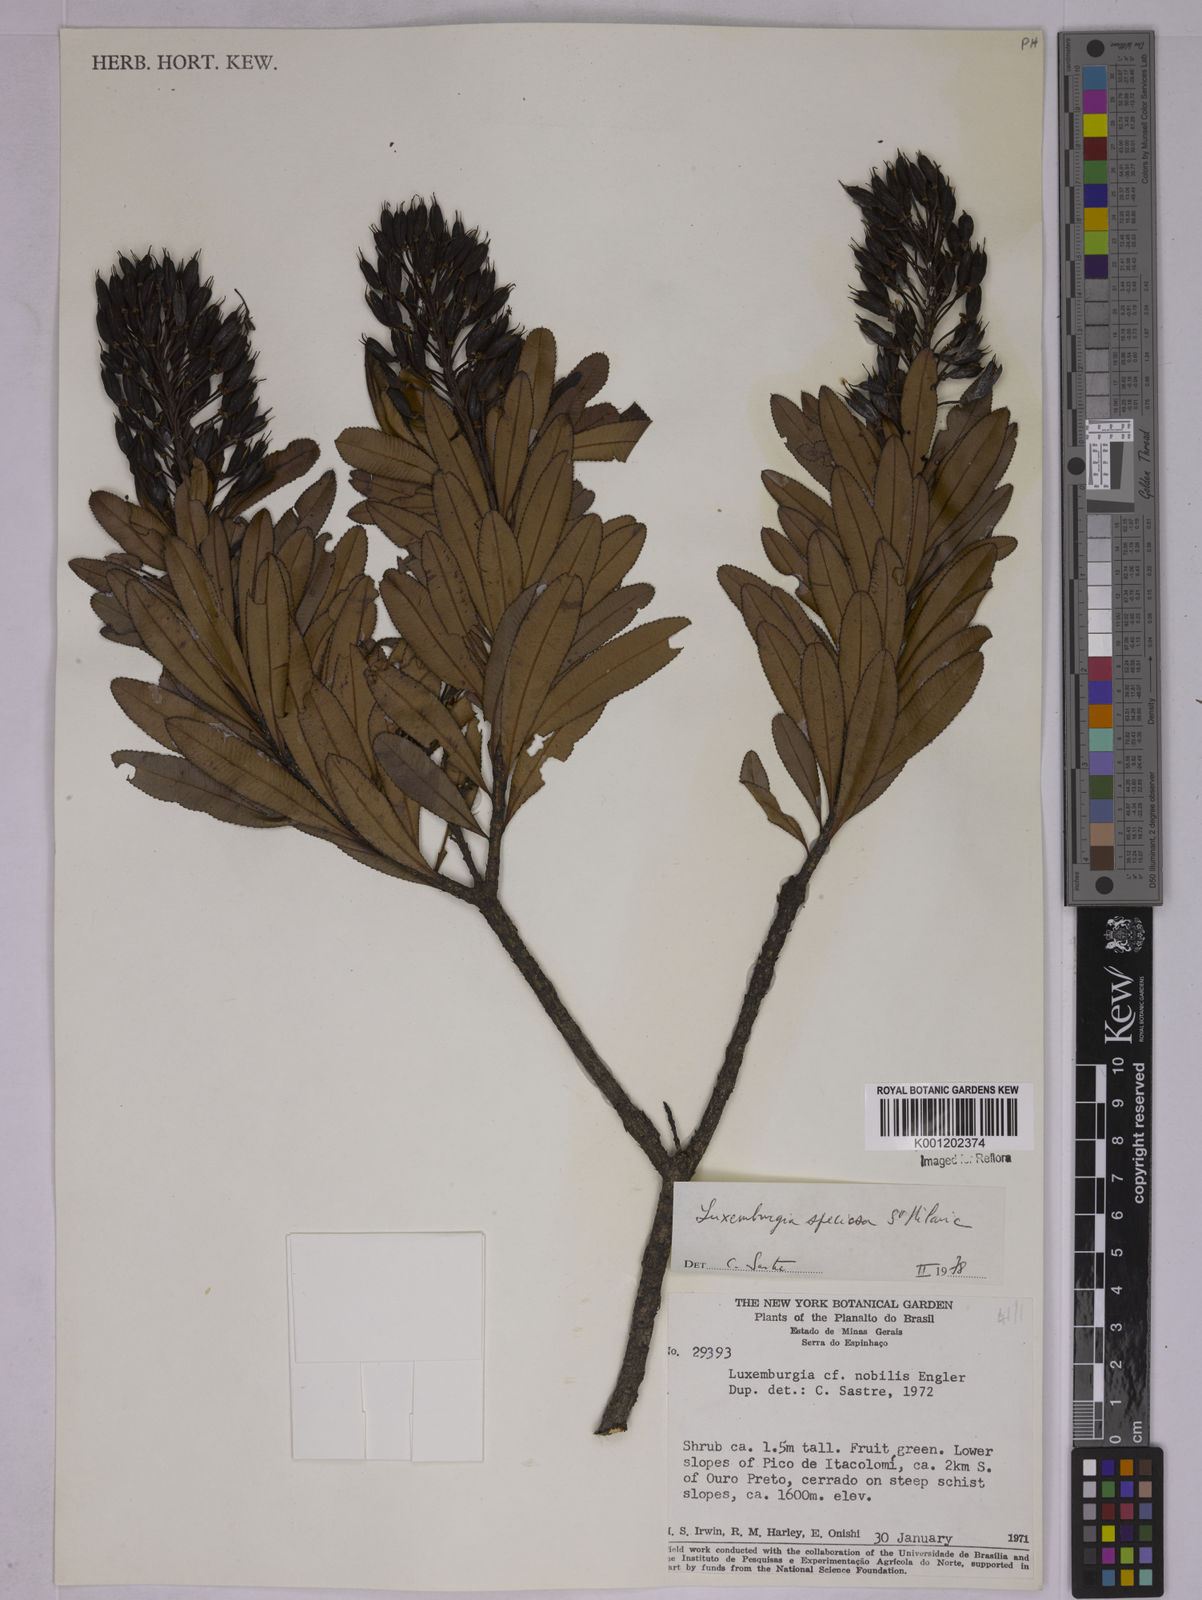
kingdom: Plantae
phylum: Tracheophyta
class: Magnoliopsida
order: Malpighiales
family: Ochnaceae
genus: Luxemburgia
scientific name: Luxemburgia speciosa
